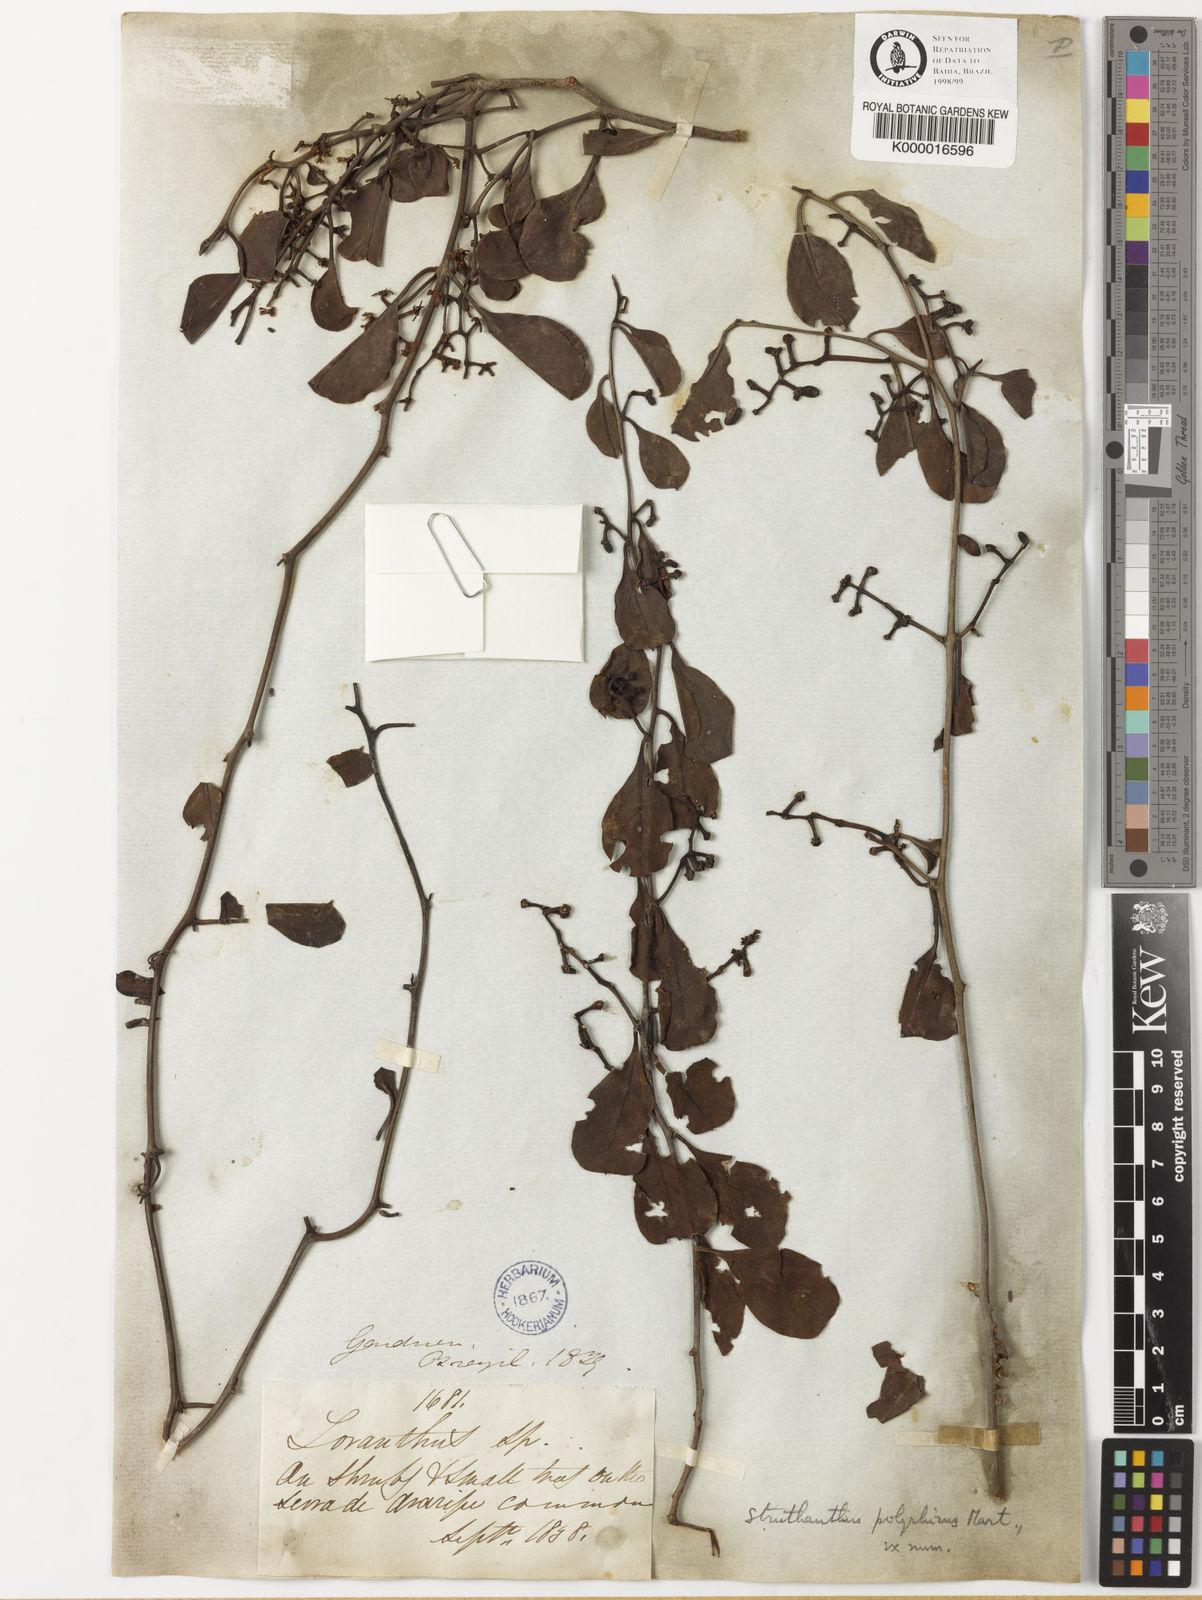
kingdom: Plantae
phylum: Tracheophyta
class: Magnoliopsida
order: Santalales
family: Loranthaceae
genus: Struthanthus
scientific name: Struthanthus retusus
